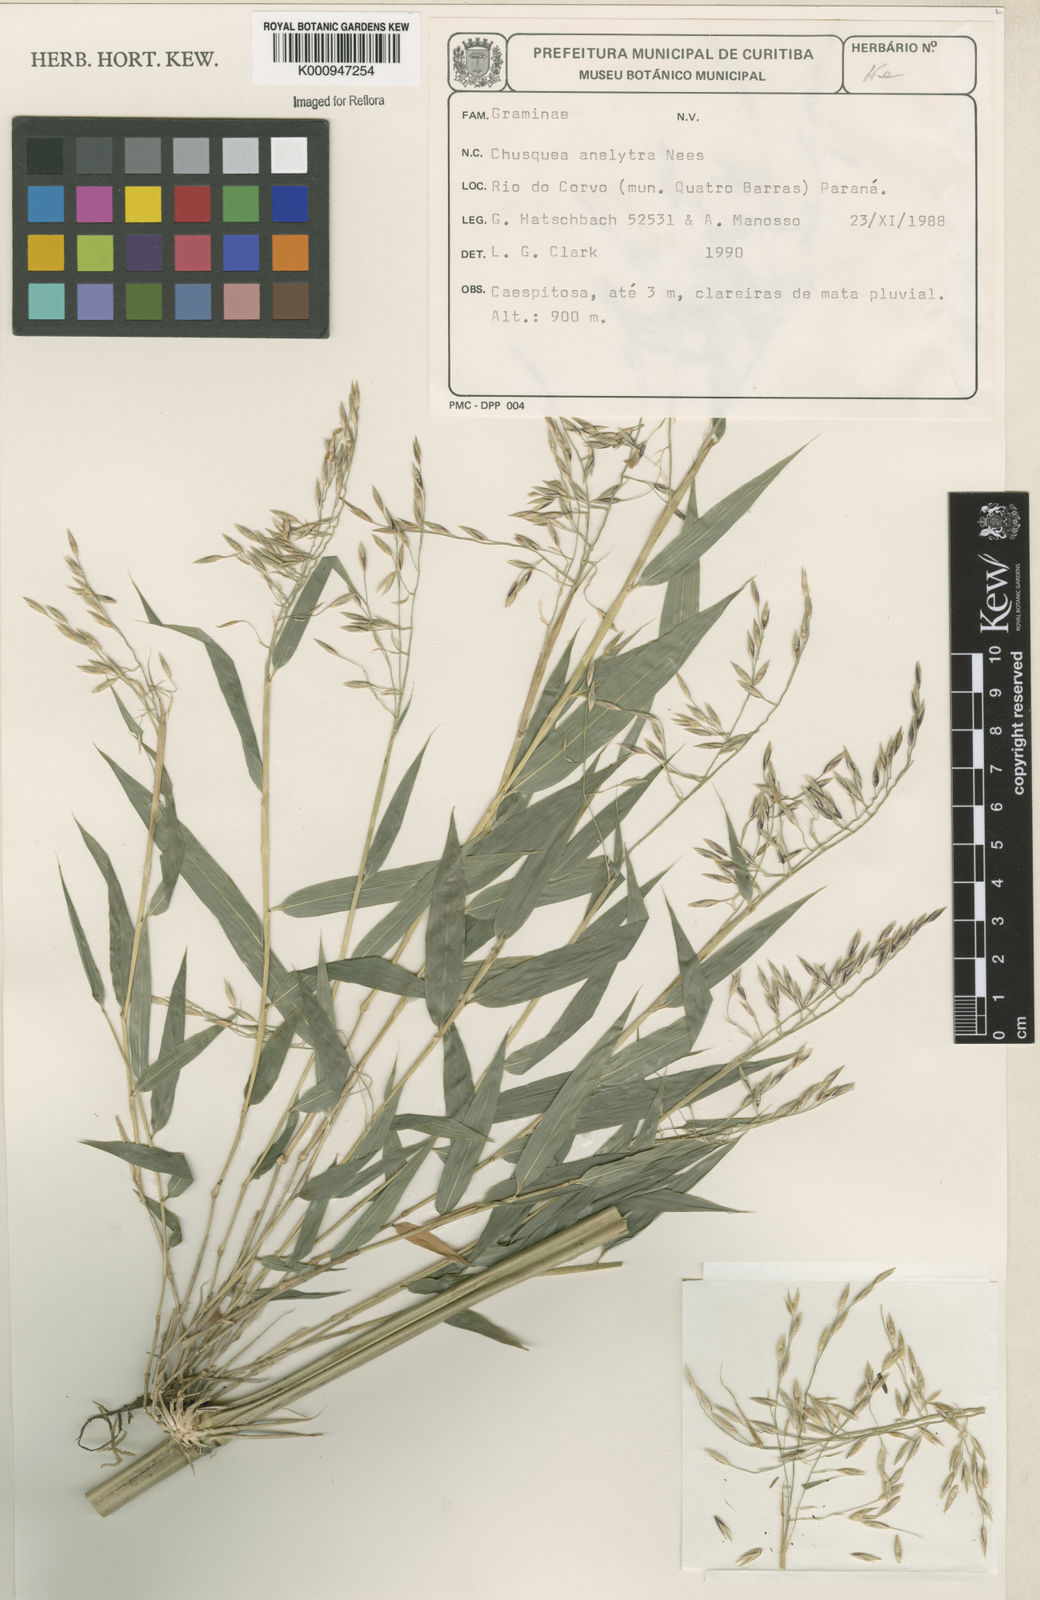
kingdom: Plantae
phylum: Tracheophyta
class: Liliopsida
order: Poales
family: Poaceae
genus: Chusquea
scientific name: Chusquea anelythra
